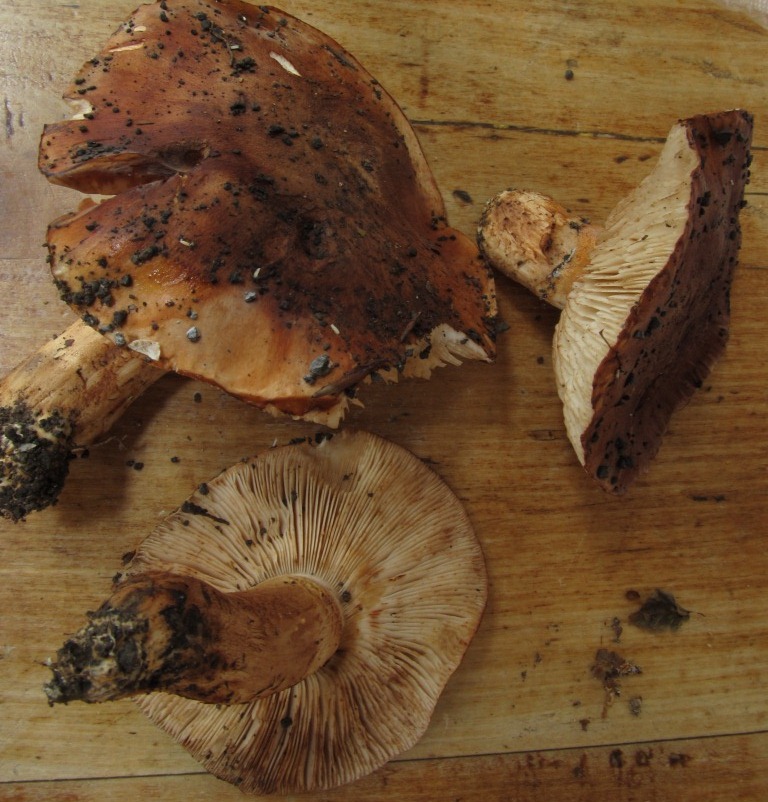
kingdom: Fungi
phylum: Basidiomycota
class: Agaricomycetes
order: Agaricales
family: Tricholomataceae
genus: Tricholoma
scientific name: Tricholoma fracticum
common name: hvidhalset ridderhat
